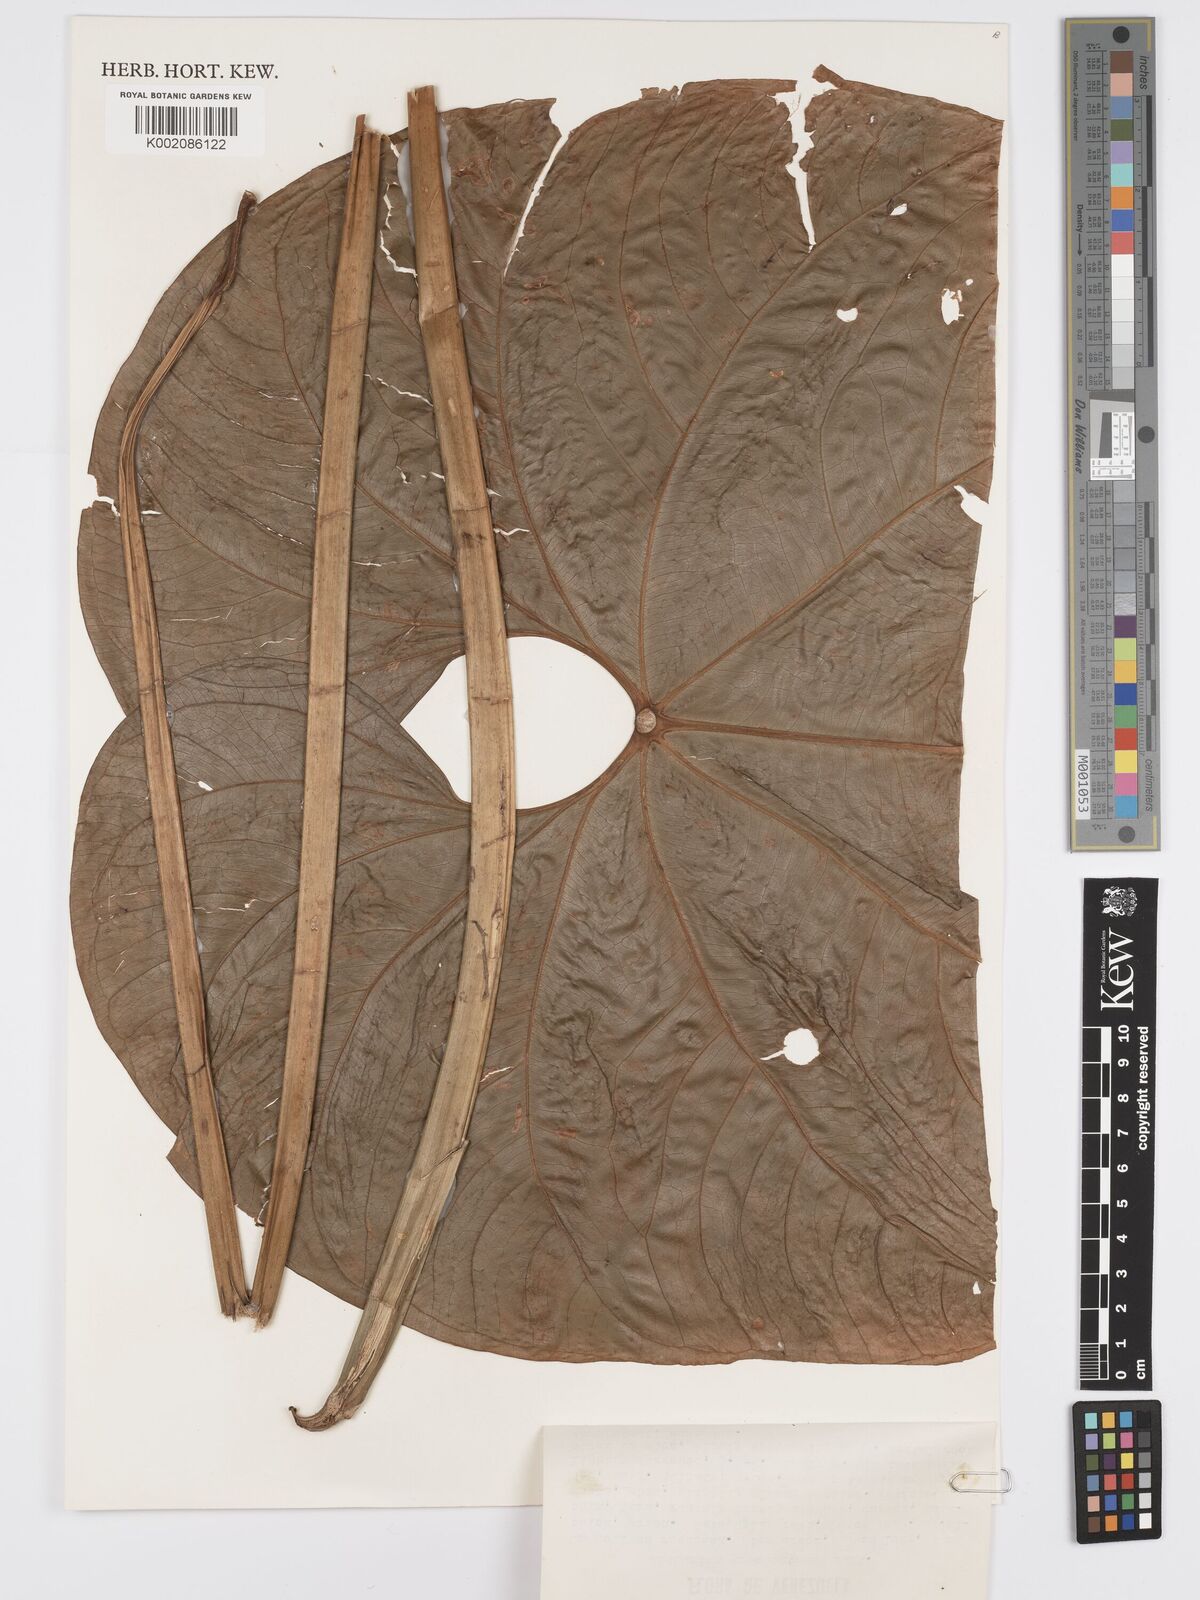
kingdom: Plantae
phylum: Tracheophyta
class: Liliopsida
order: Alismatales
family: Araceae
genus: Anthurium
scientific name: Anthurium formosum
